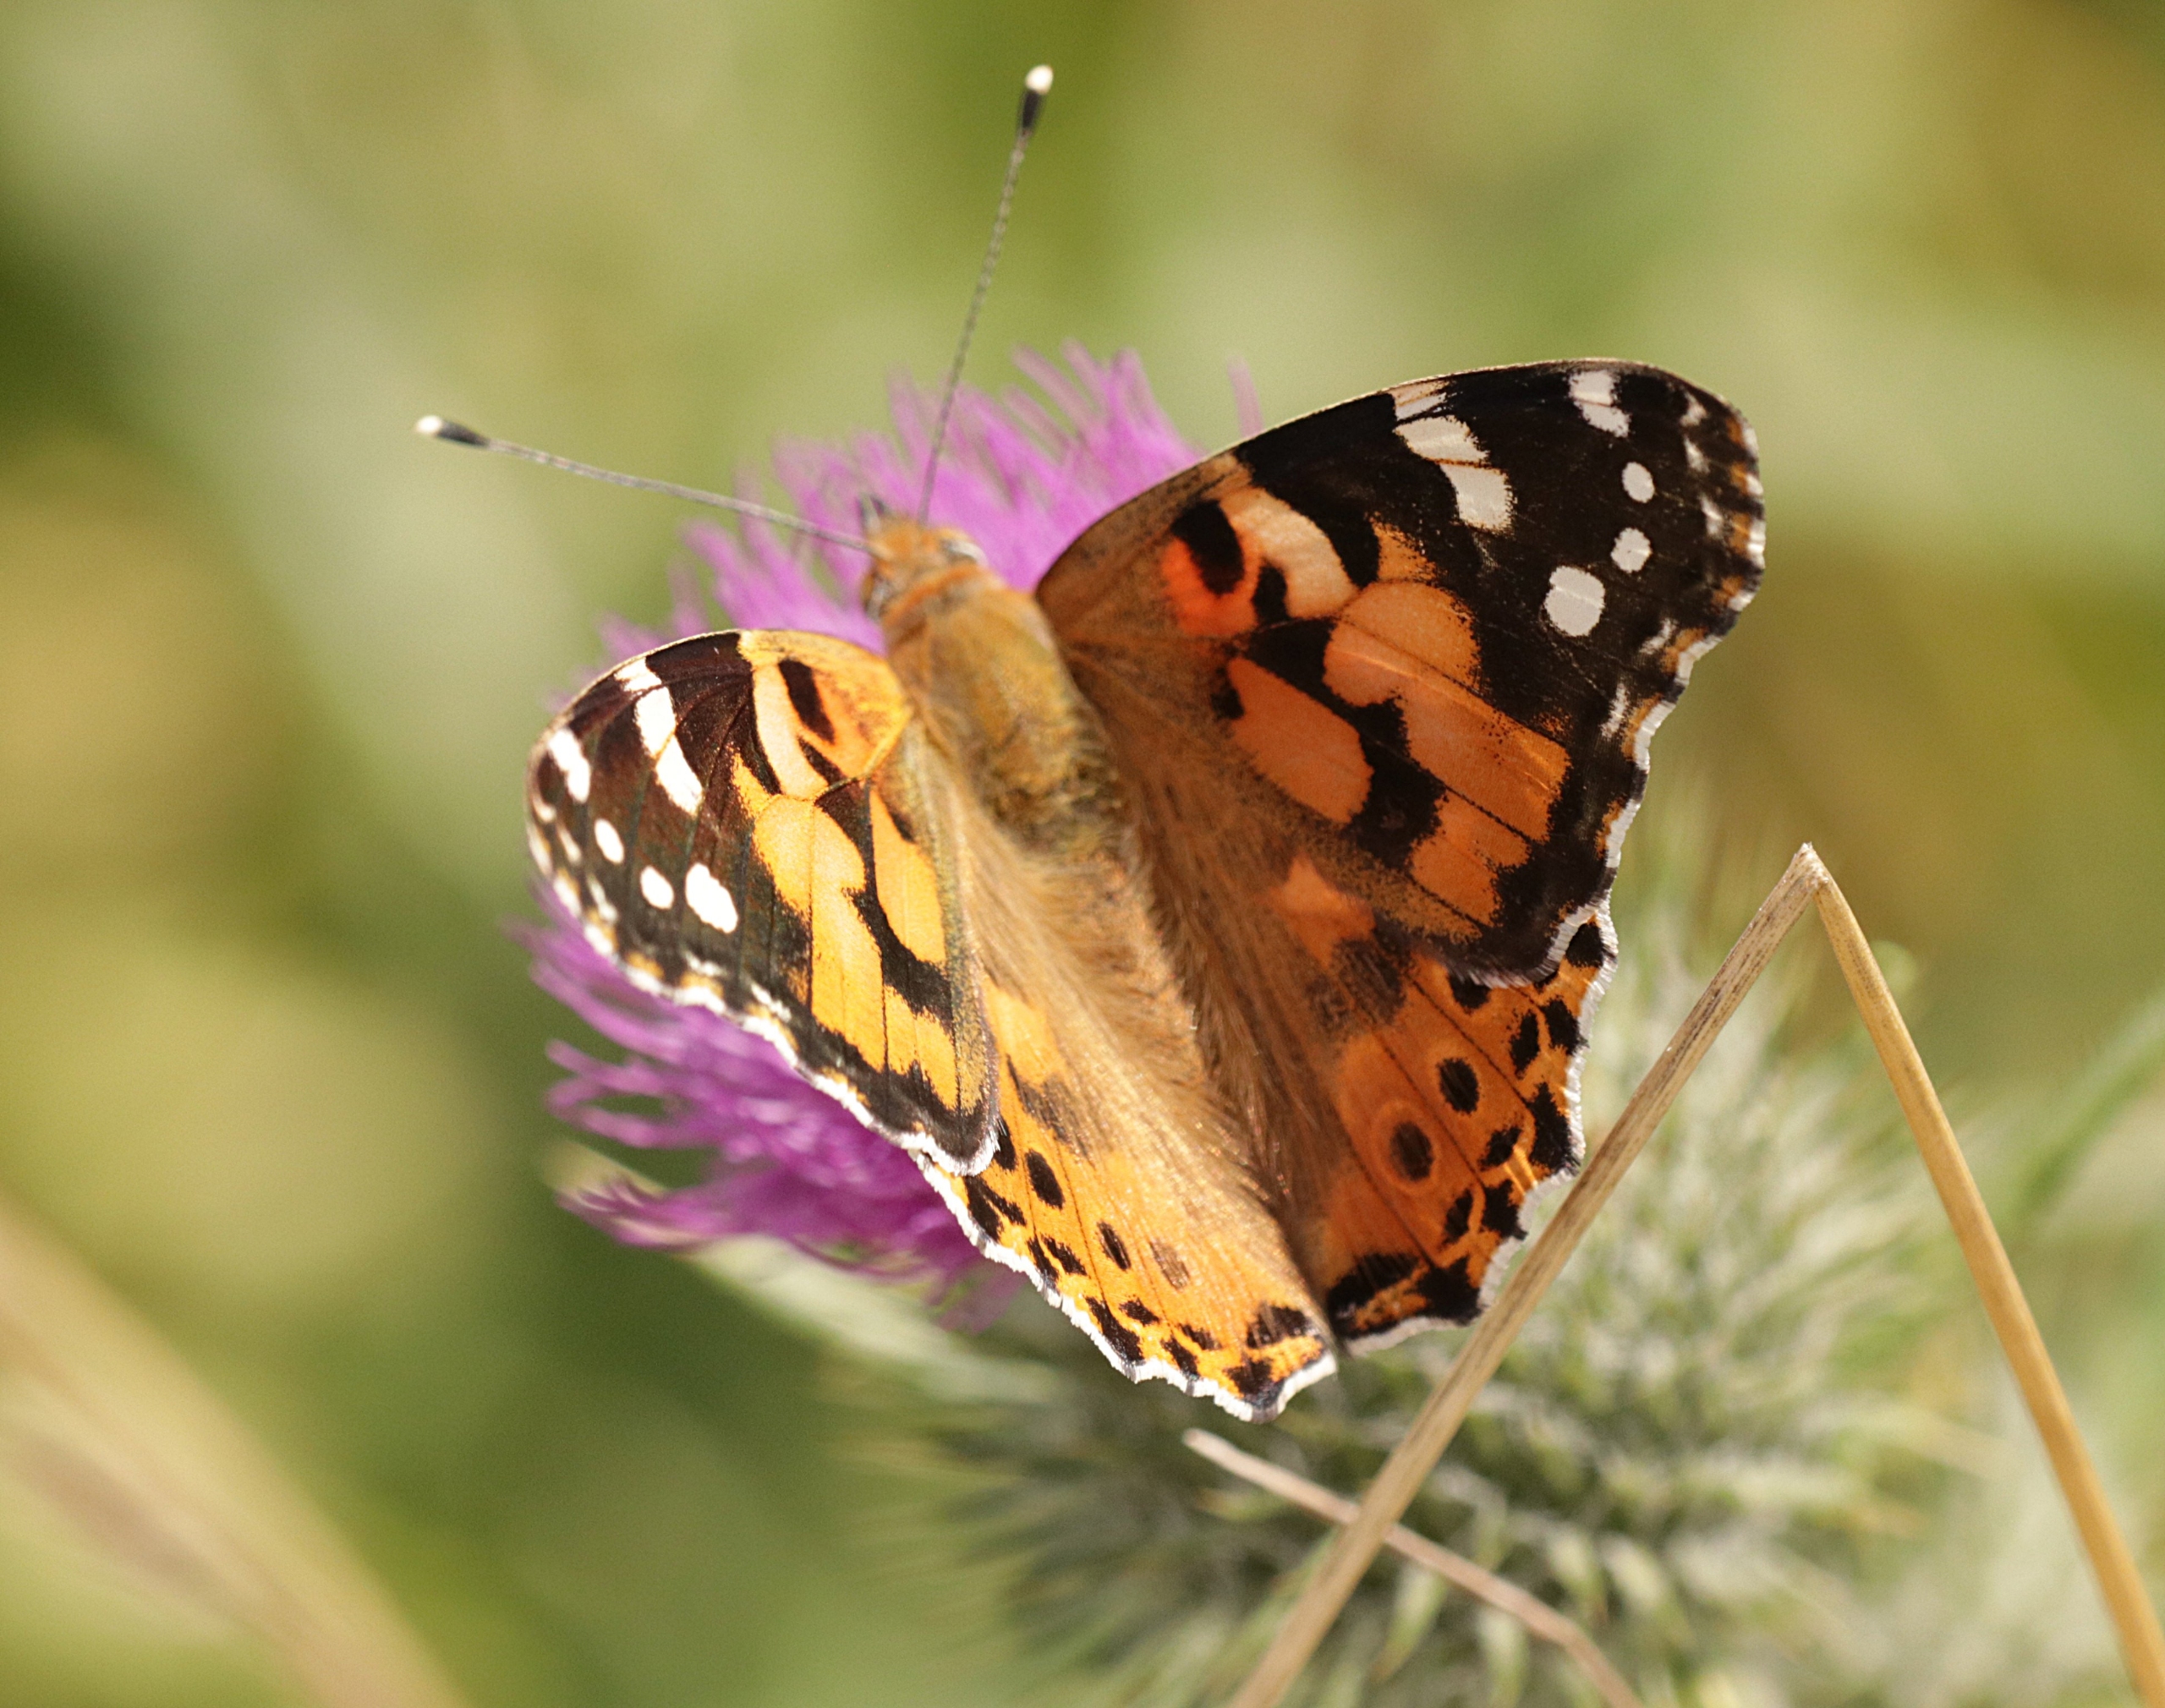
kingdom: Animalia
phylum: Arthropoda
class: Insecta
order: Lepidoptera
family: Nymphalidae
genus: Vanessa
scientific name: Vanessa cardui
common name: Tidselsommerfugl
